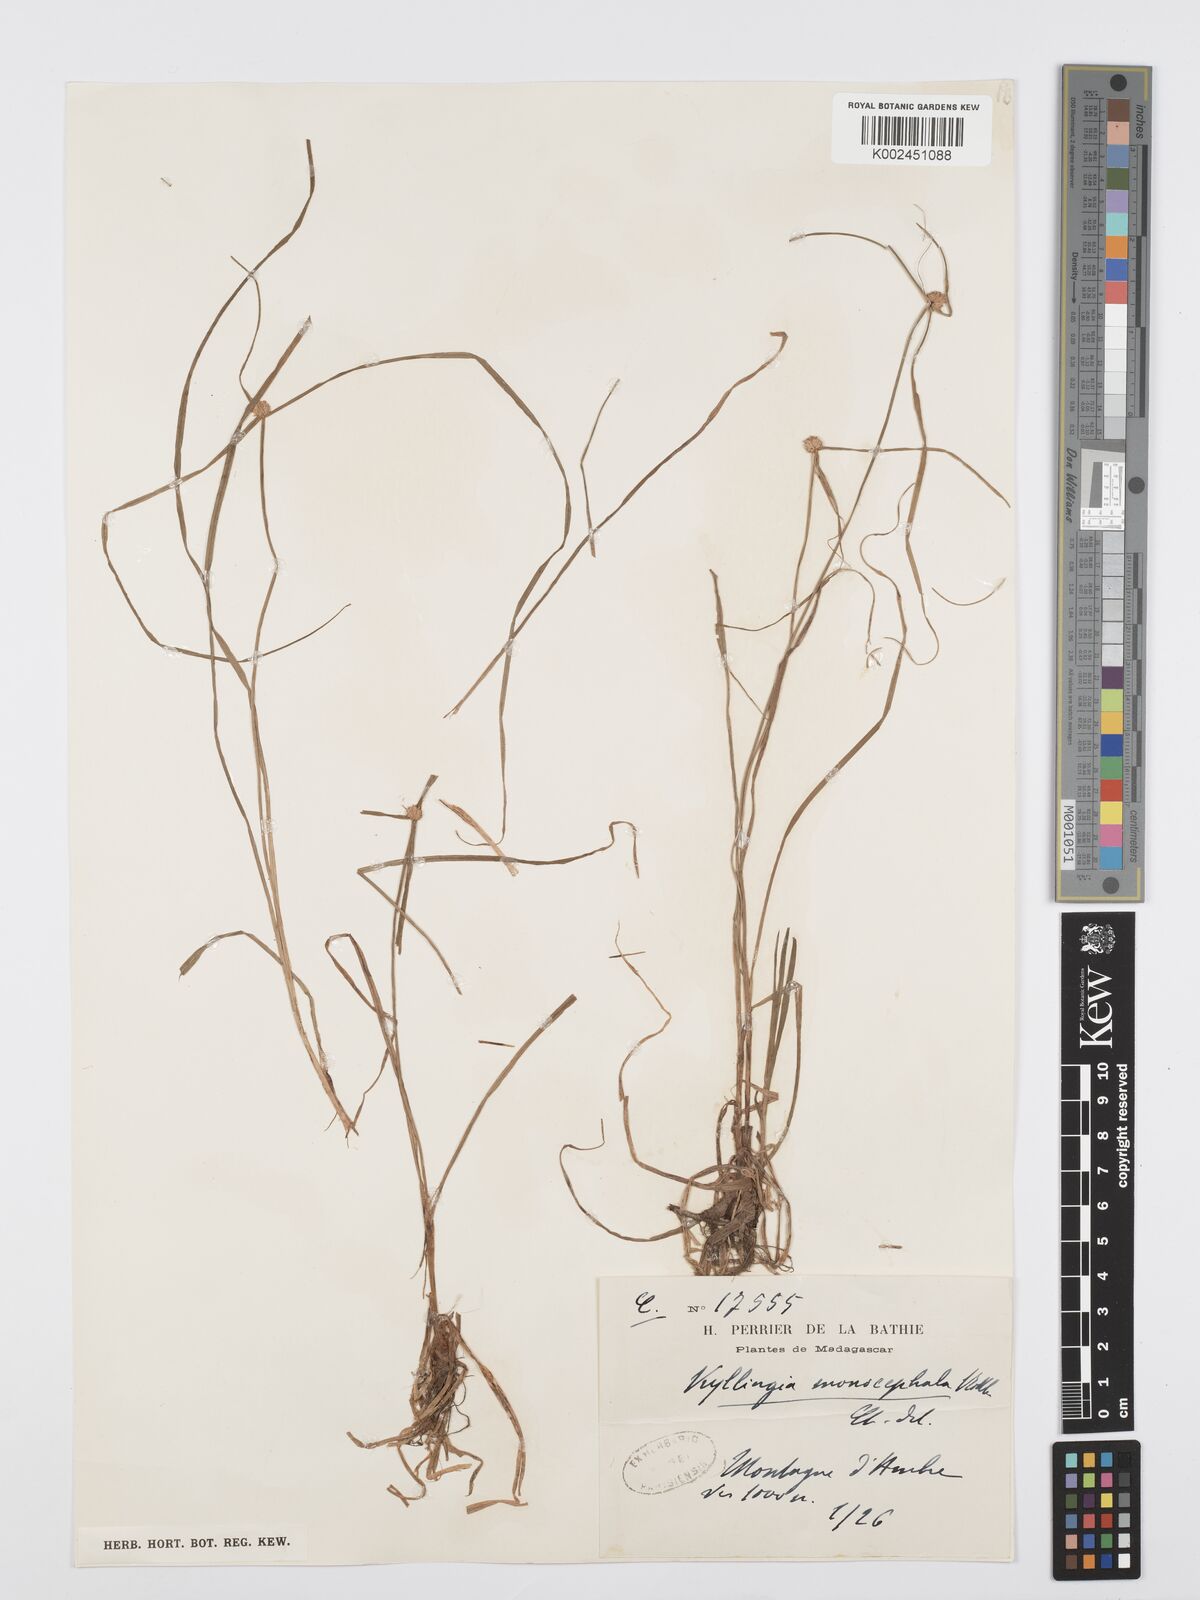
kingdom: Plantae
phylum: Tracheophyta
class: Liliopsida
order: Poales
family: Cyperaceae
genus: Cyperus
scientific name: Cyperus nemoralis
